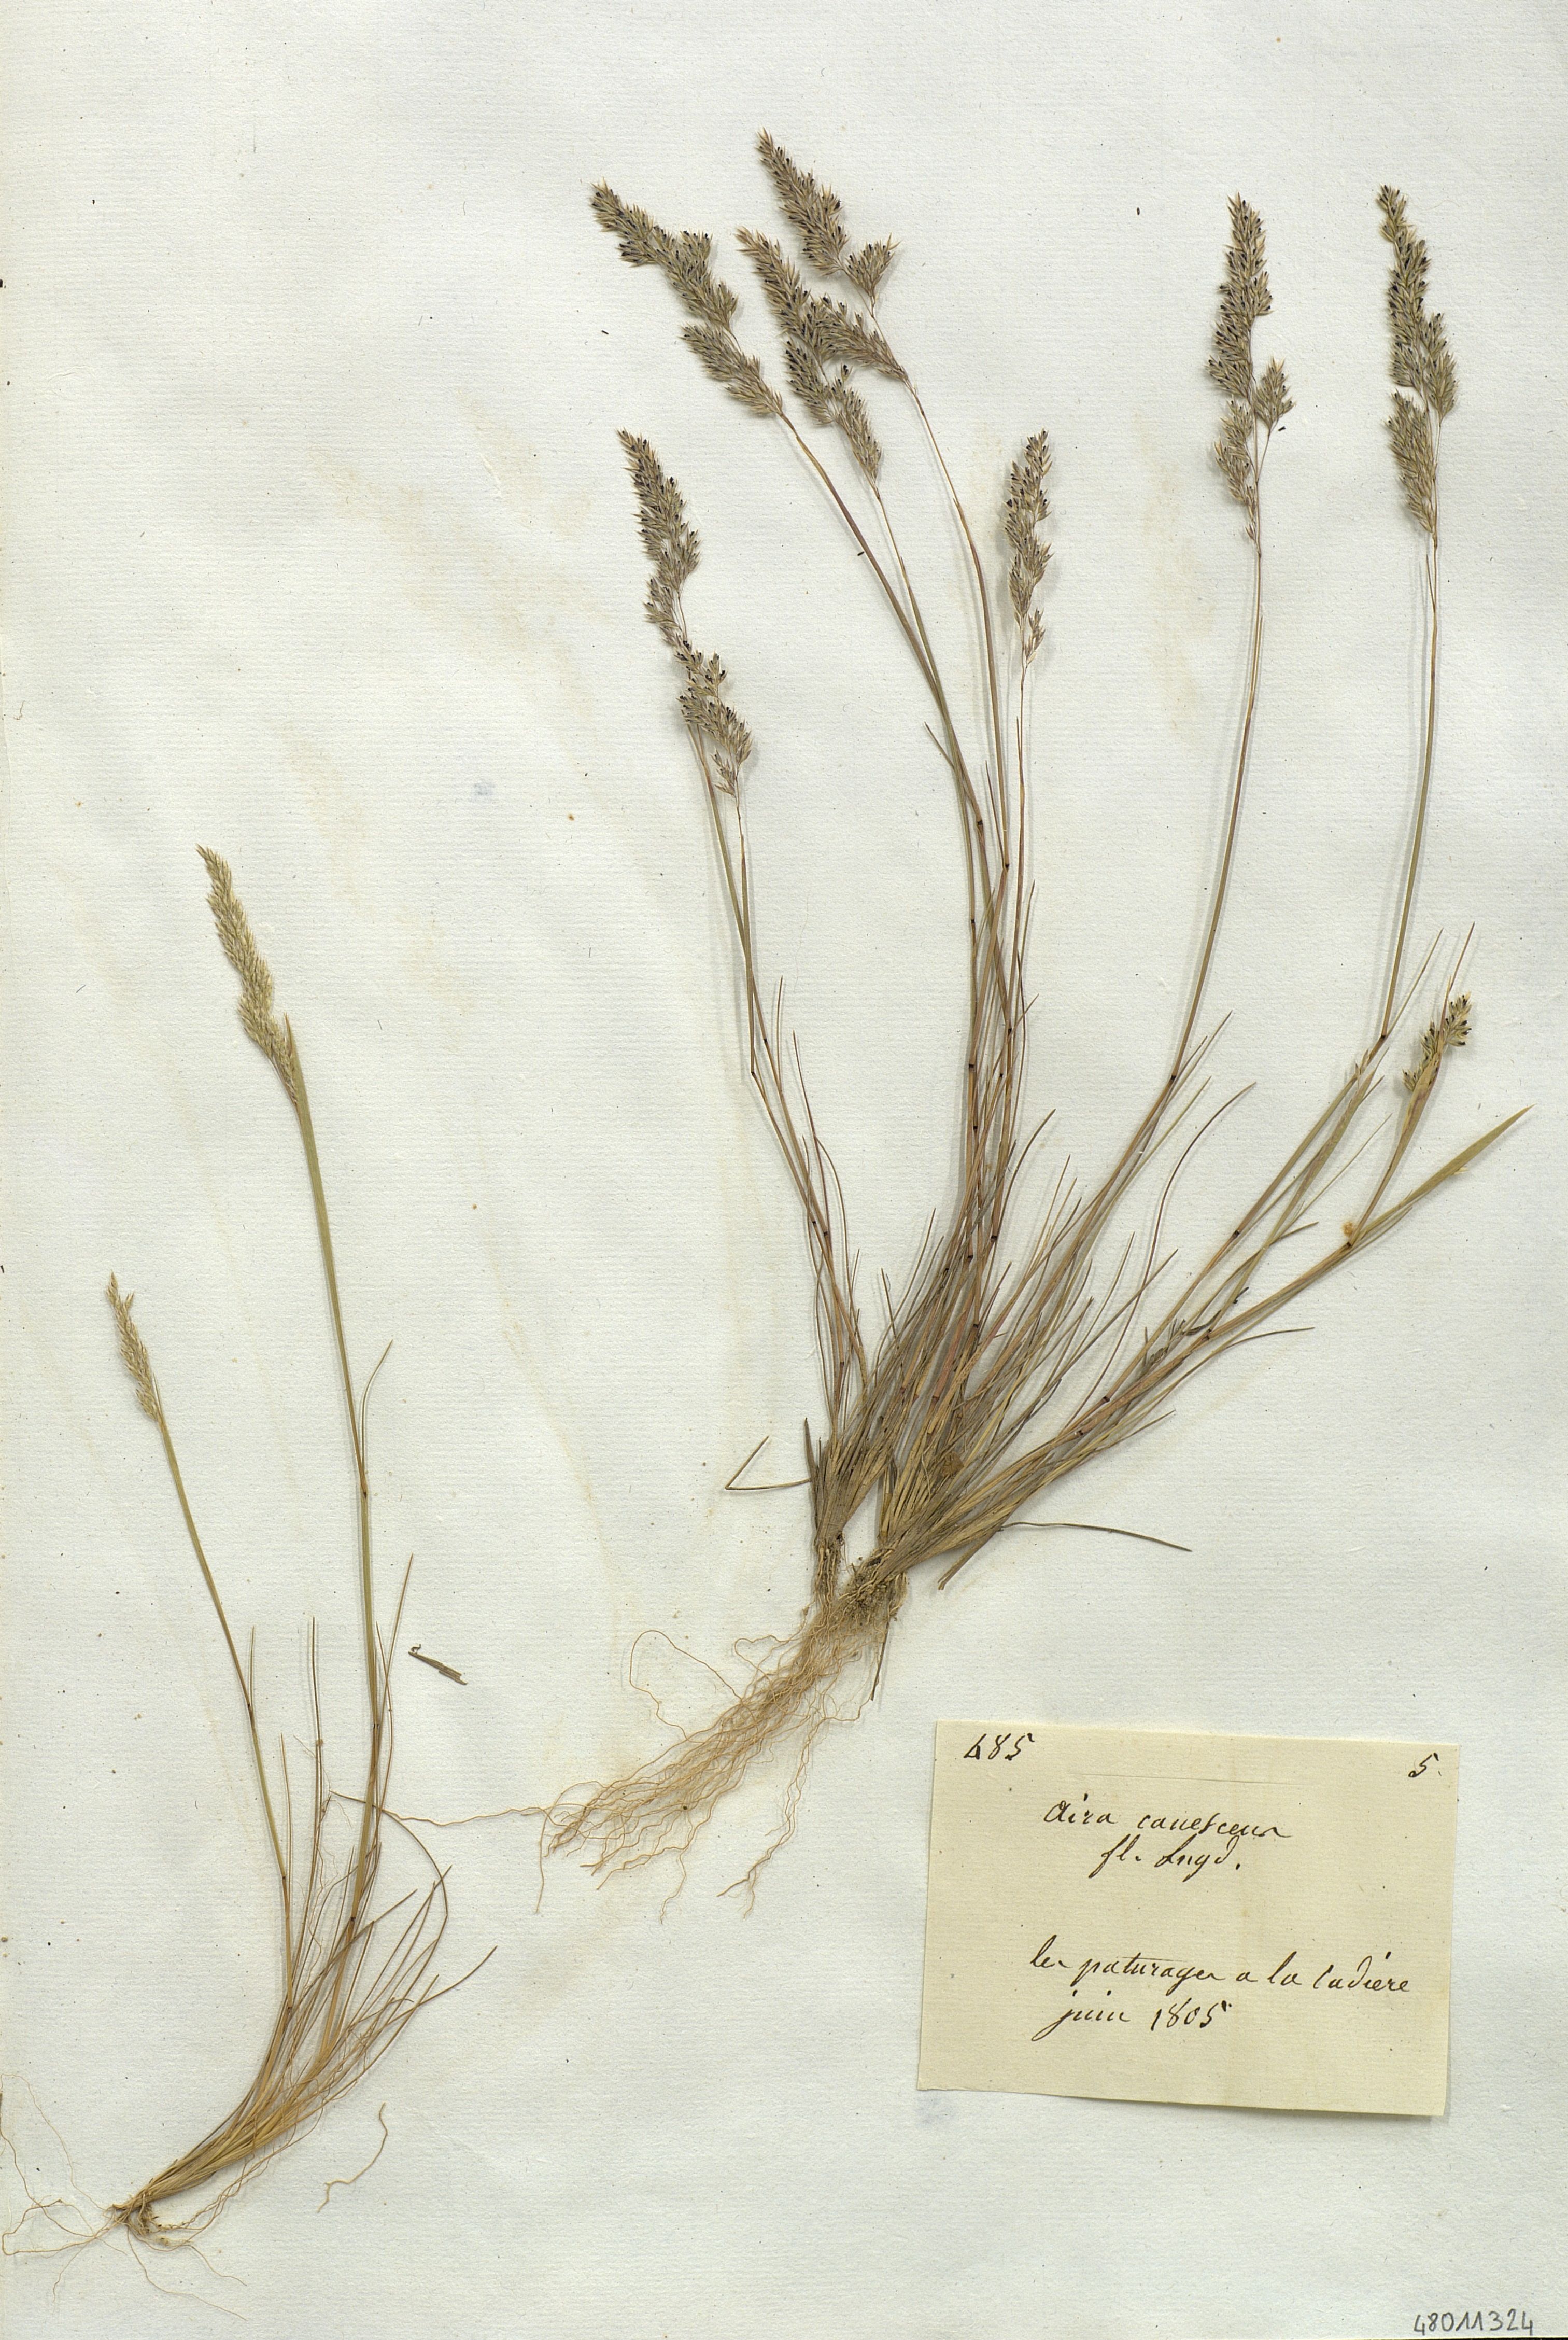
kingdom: Plantae
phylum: Tracheophyta
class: Liliopsida
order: Poales
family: Poaceae
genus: Aira
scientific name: Aira canescens
